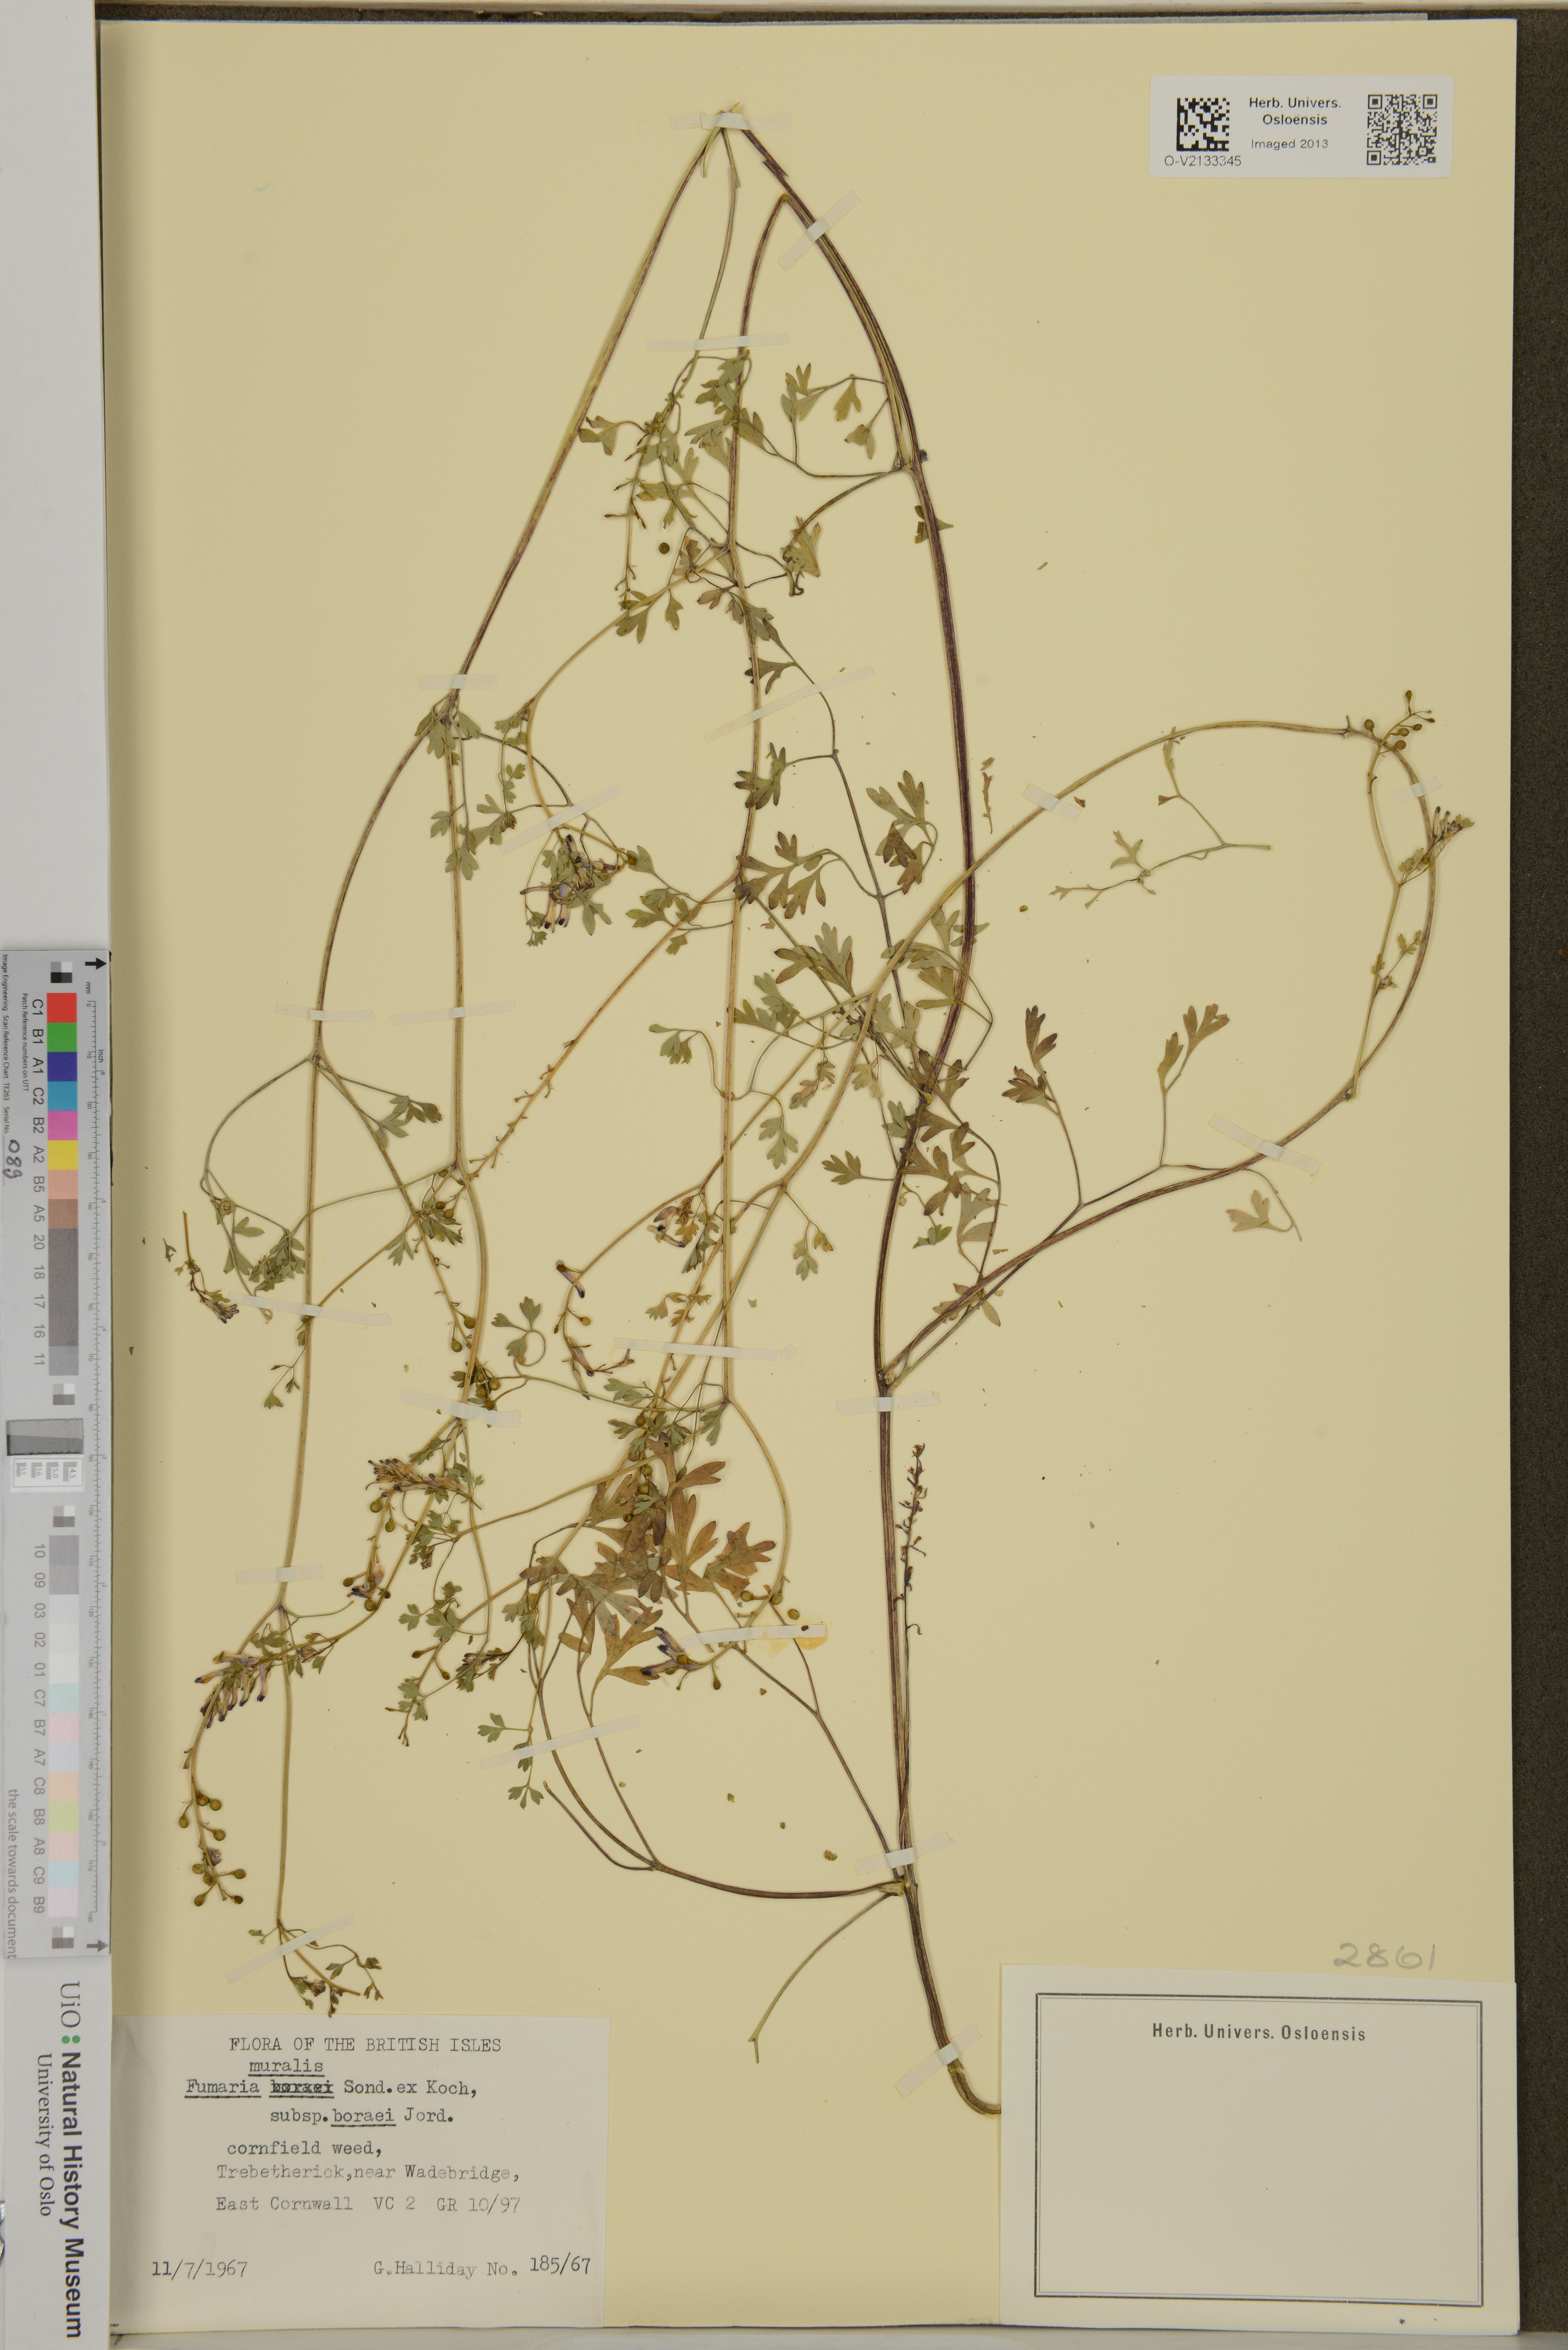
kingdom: Plantae
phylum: Tracheophyta
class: Magnoliopsida
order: Ranunculales
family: Papaveraceae
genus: Fumaria
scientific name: Fumaria muralis
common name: Common ramping-fumitory
